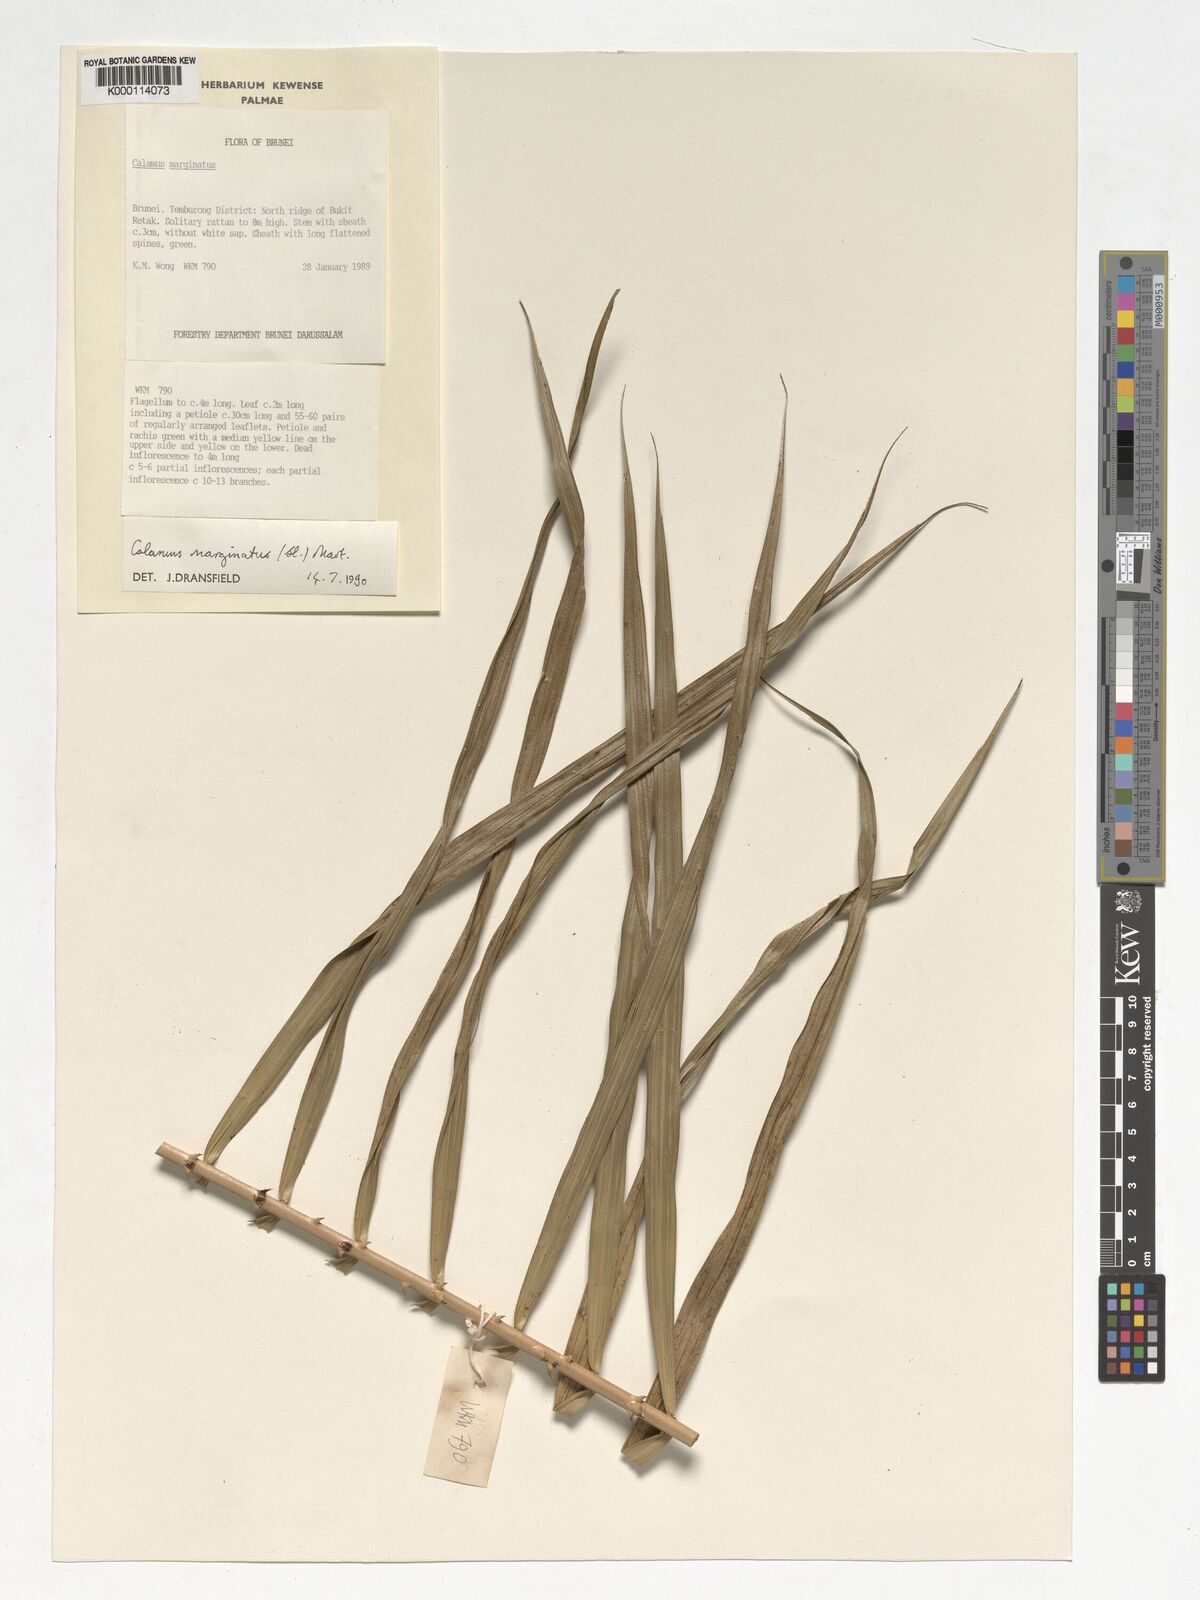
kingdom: Plantae
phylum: Tracheophyta
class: Liliopsida
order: Arecales
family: Arecaceae
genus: Calamus
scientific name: Calamus
